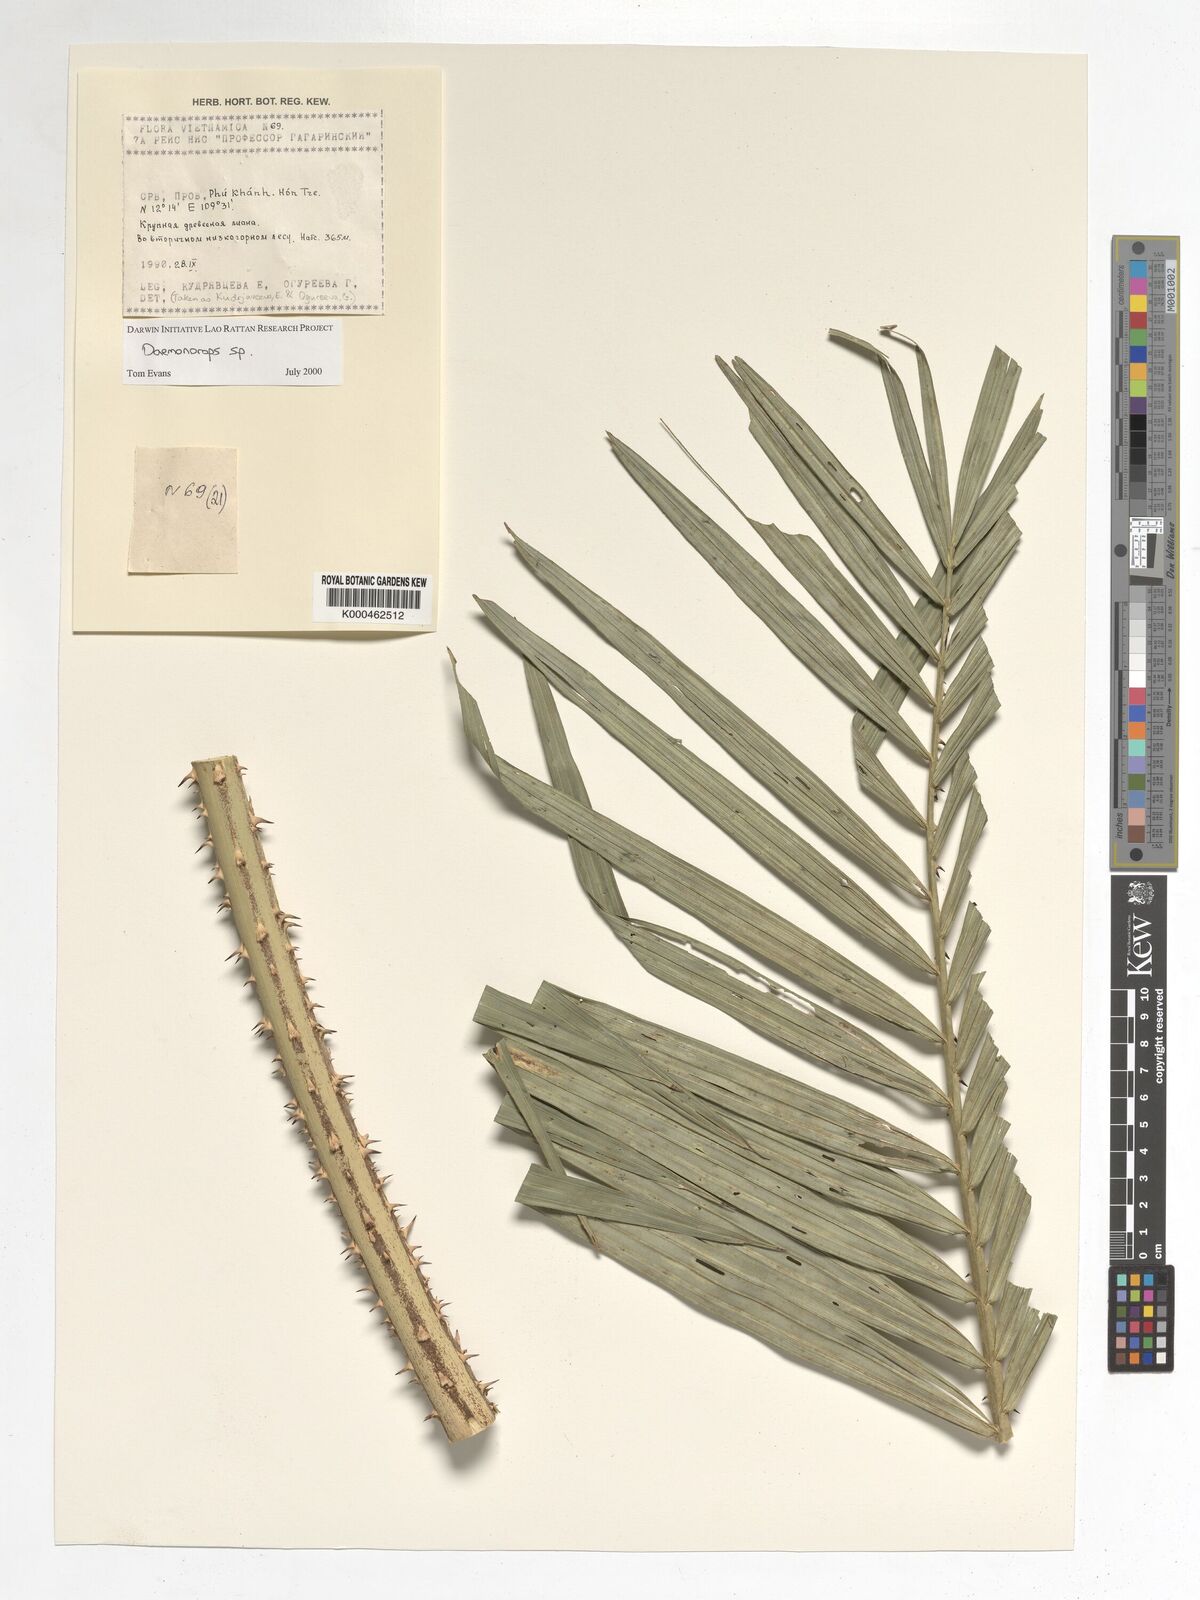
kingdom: Plantae
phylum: Tracheophyta
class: Liliopsida
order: Arecales
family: Arecaceae
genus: Daemonorops
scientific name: Daemonorops
